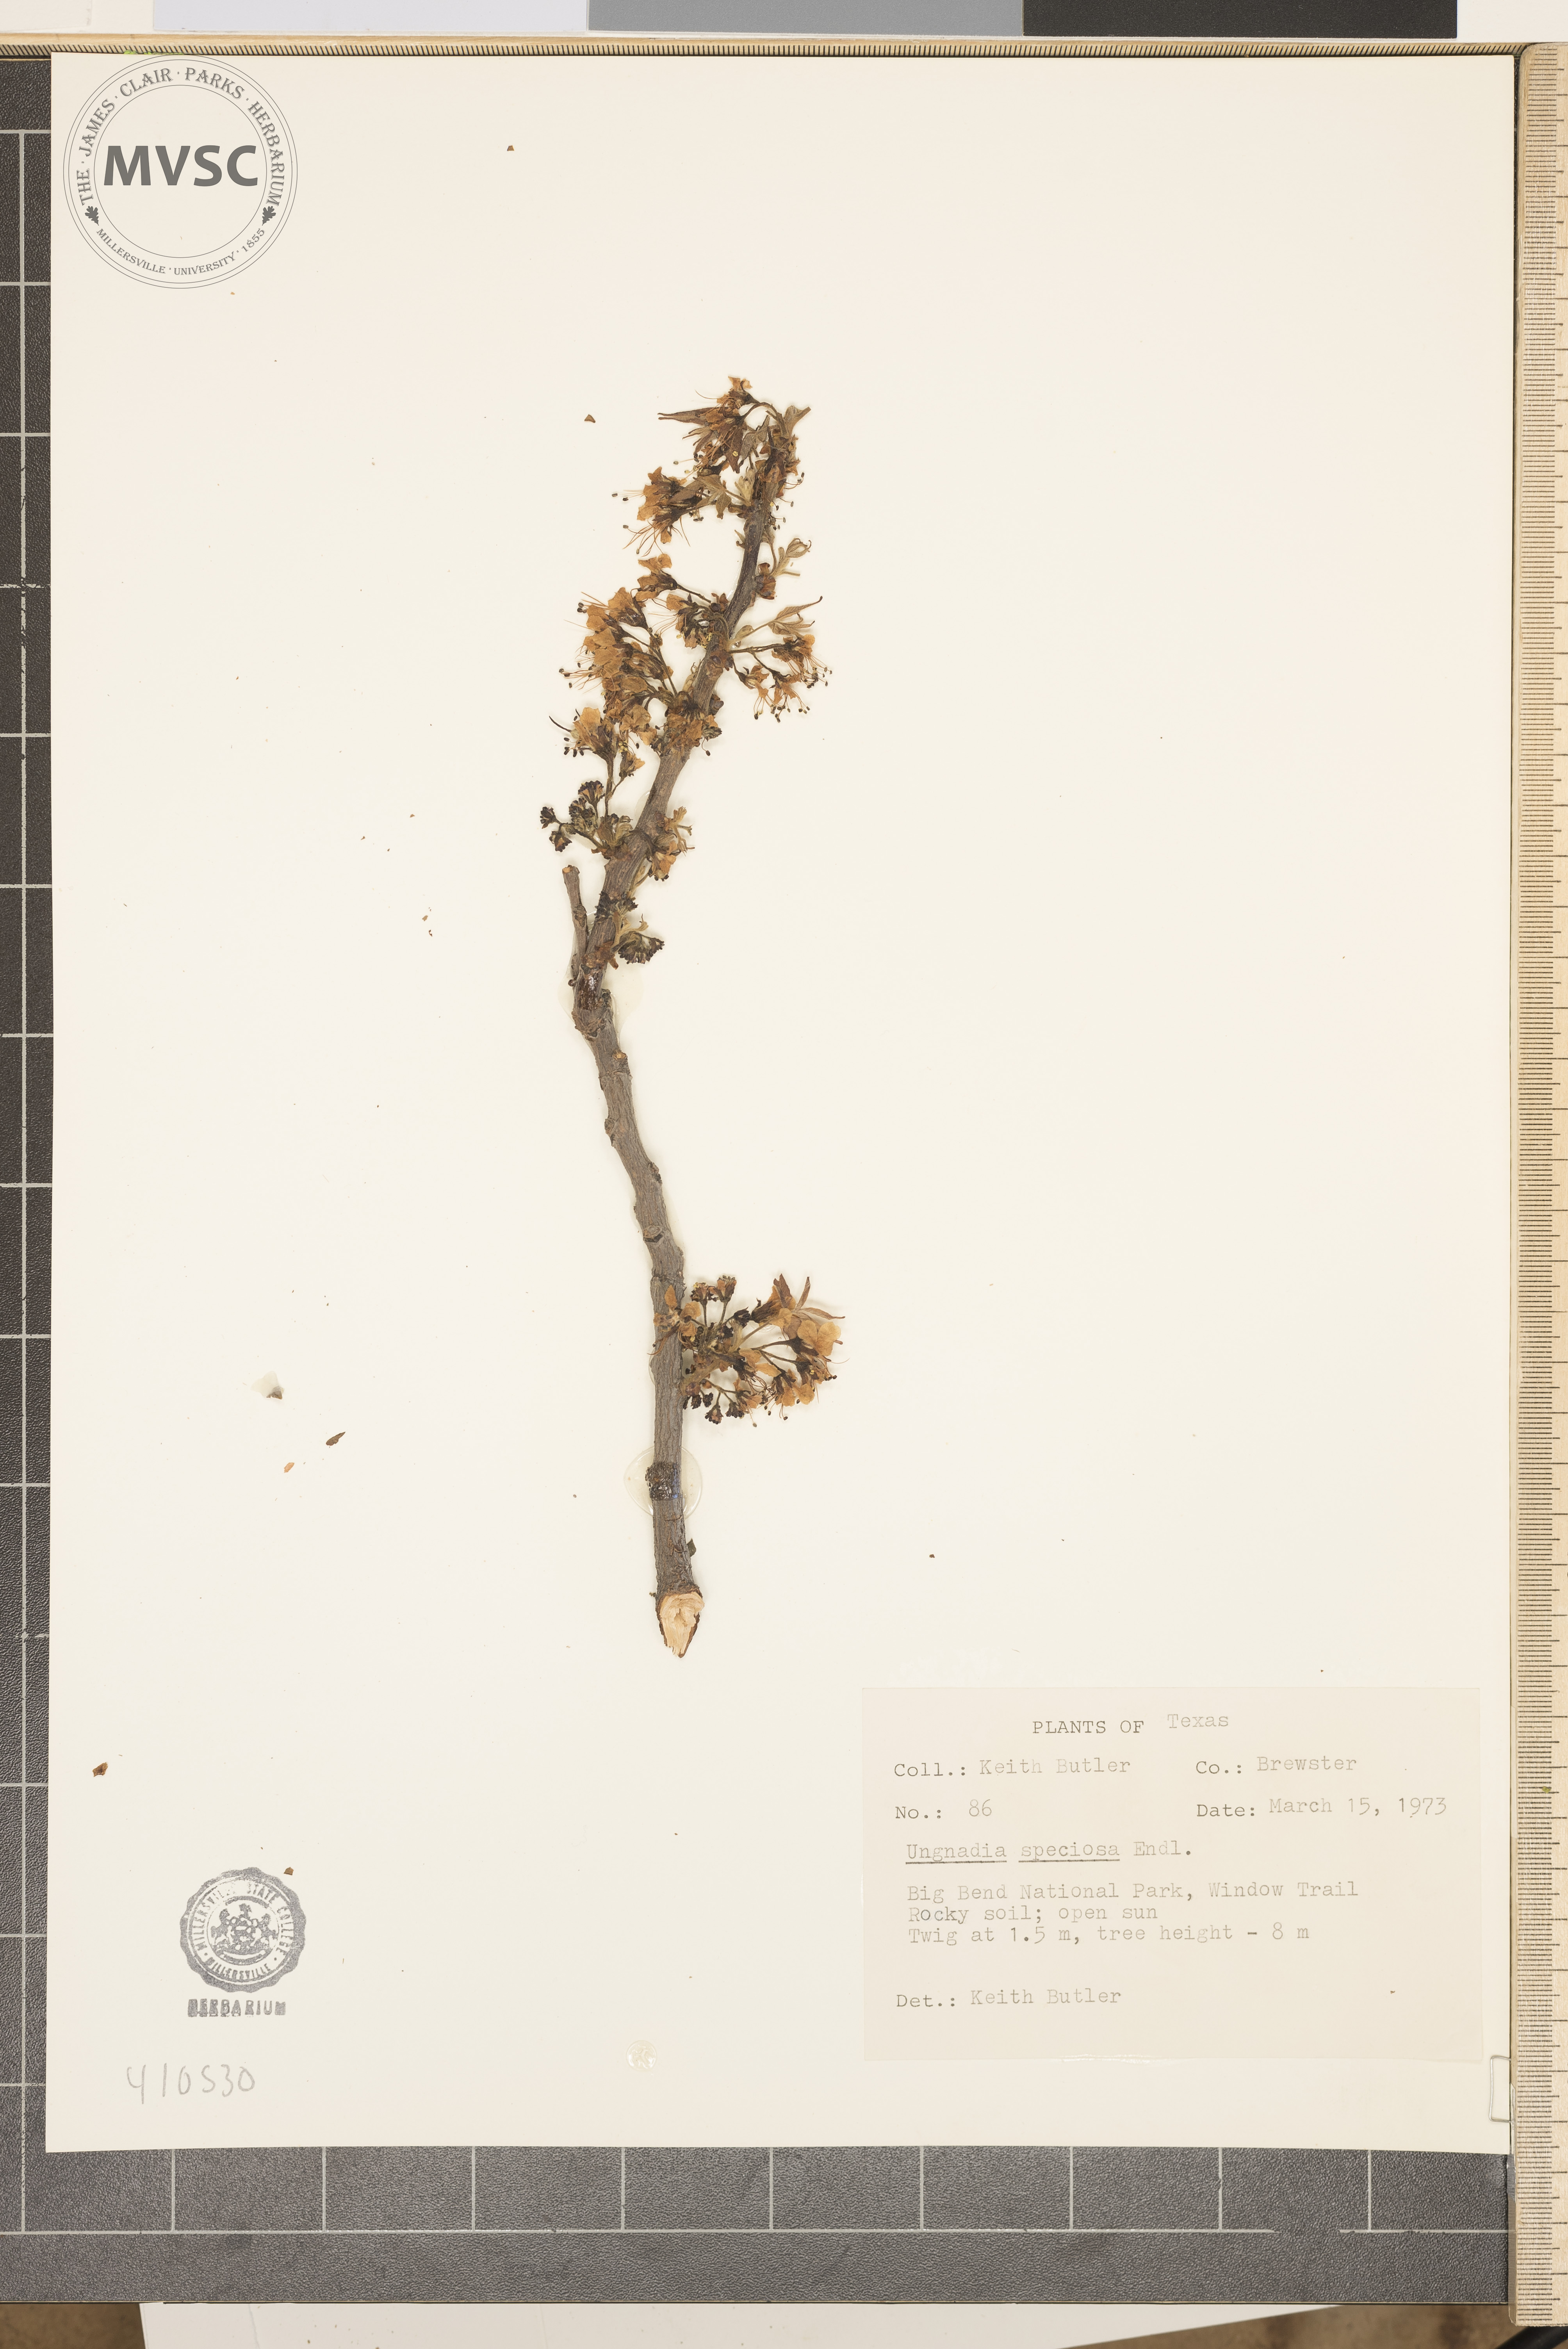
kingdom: Plantae
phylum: Tracheophyta
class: Magnoliopsida
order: Sapindales
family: Sapindaceae
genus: Ungnadia
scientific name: Ungnadia speciosa
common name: Texas-buckeye
